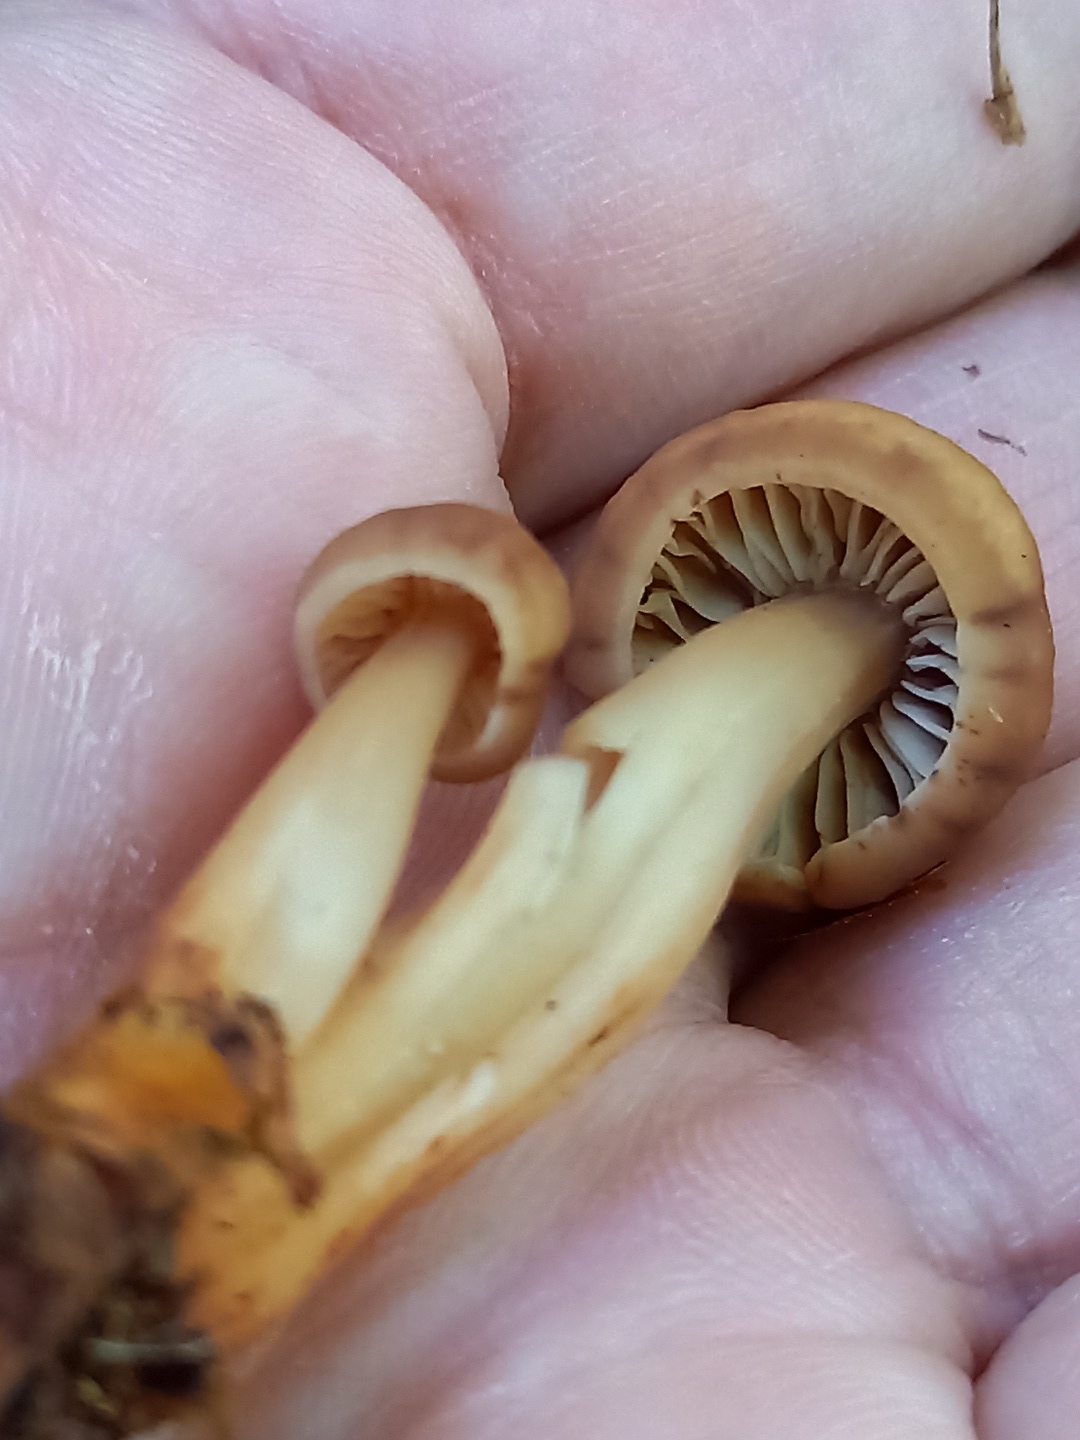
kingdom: Fungi
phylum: Basidiomycota
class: Agaricomycetes
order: Agaricales
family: Omphalotaceae
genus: Gymnopus
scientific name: Gymnopus fusipes
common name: tenstokket fladhat
